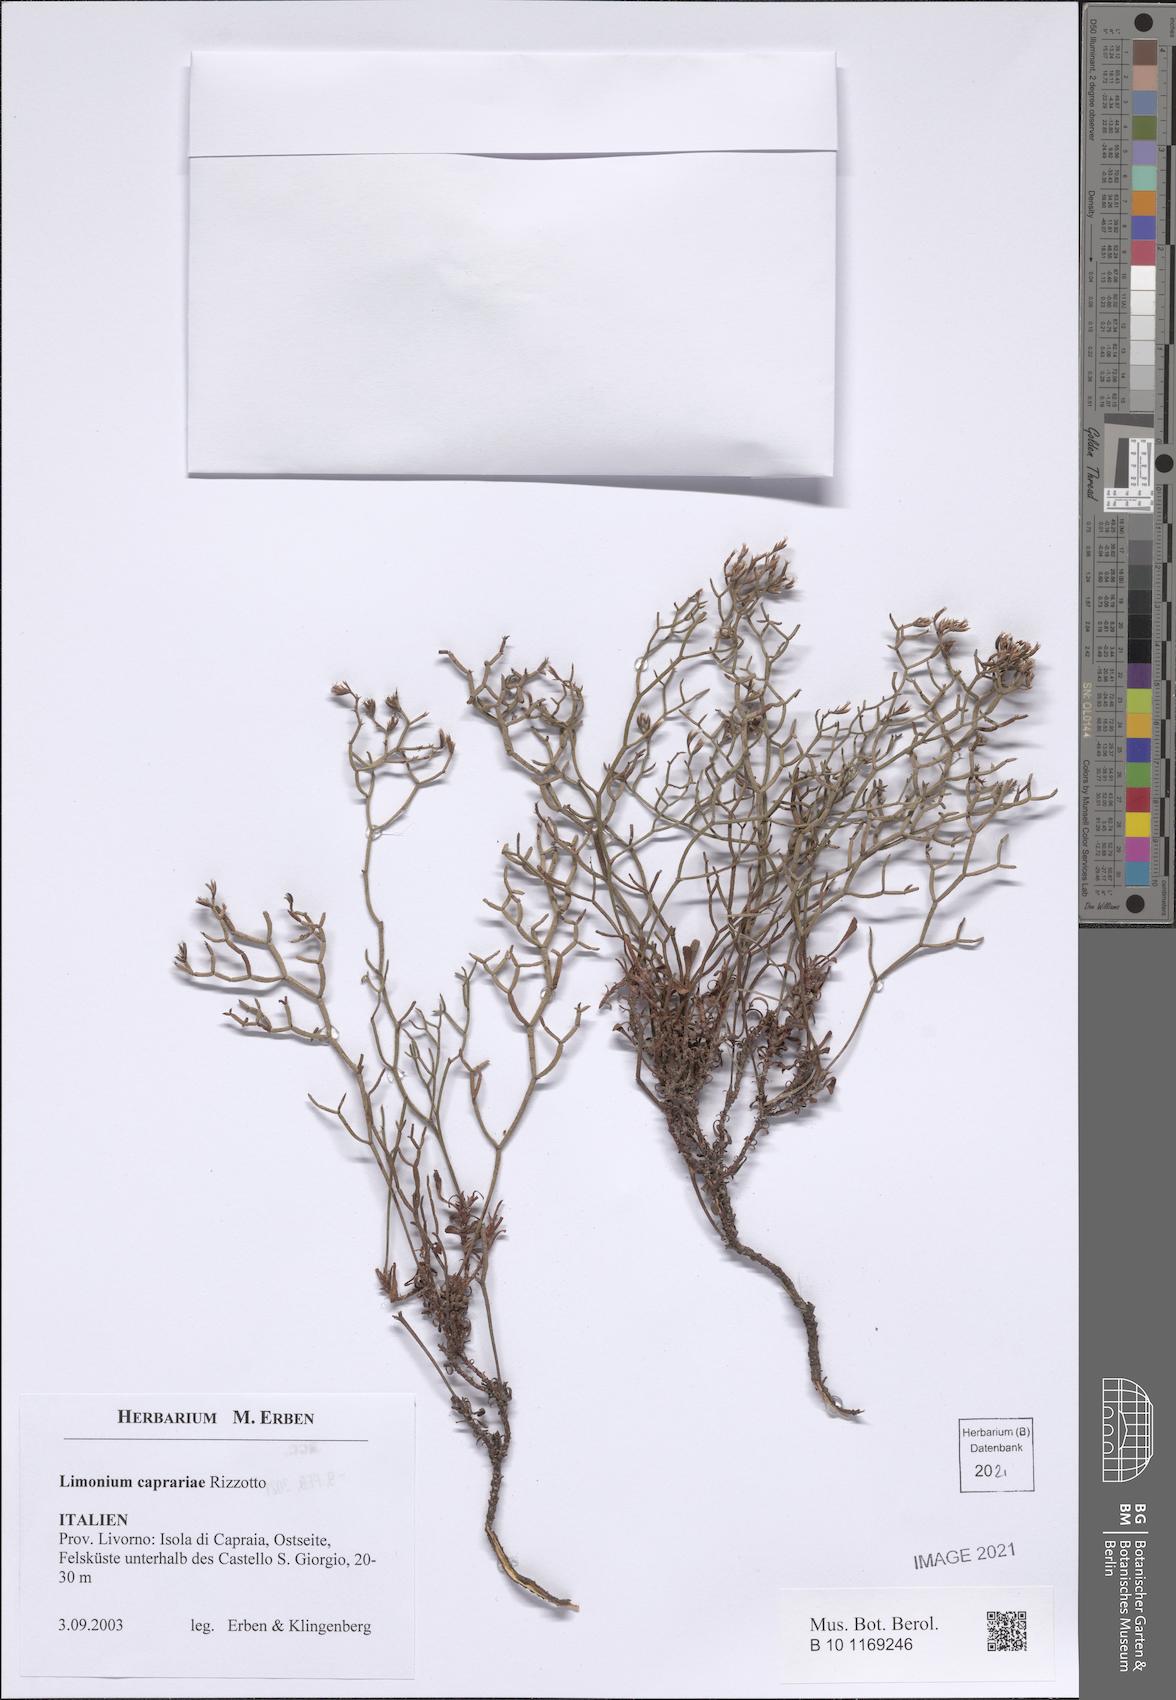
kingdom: Plantae
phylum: Tracheophyta
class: Magnoliopsida
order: Caryophyllales
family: Plumbaginaceae
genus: Limonium
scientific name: Limonium caprariae
